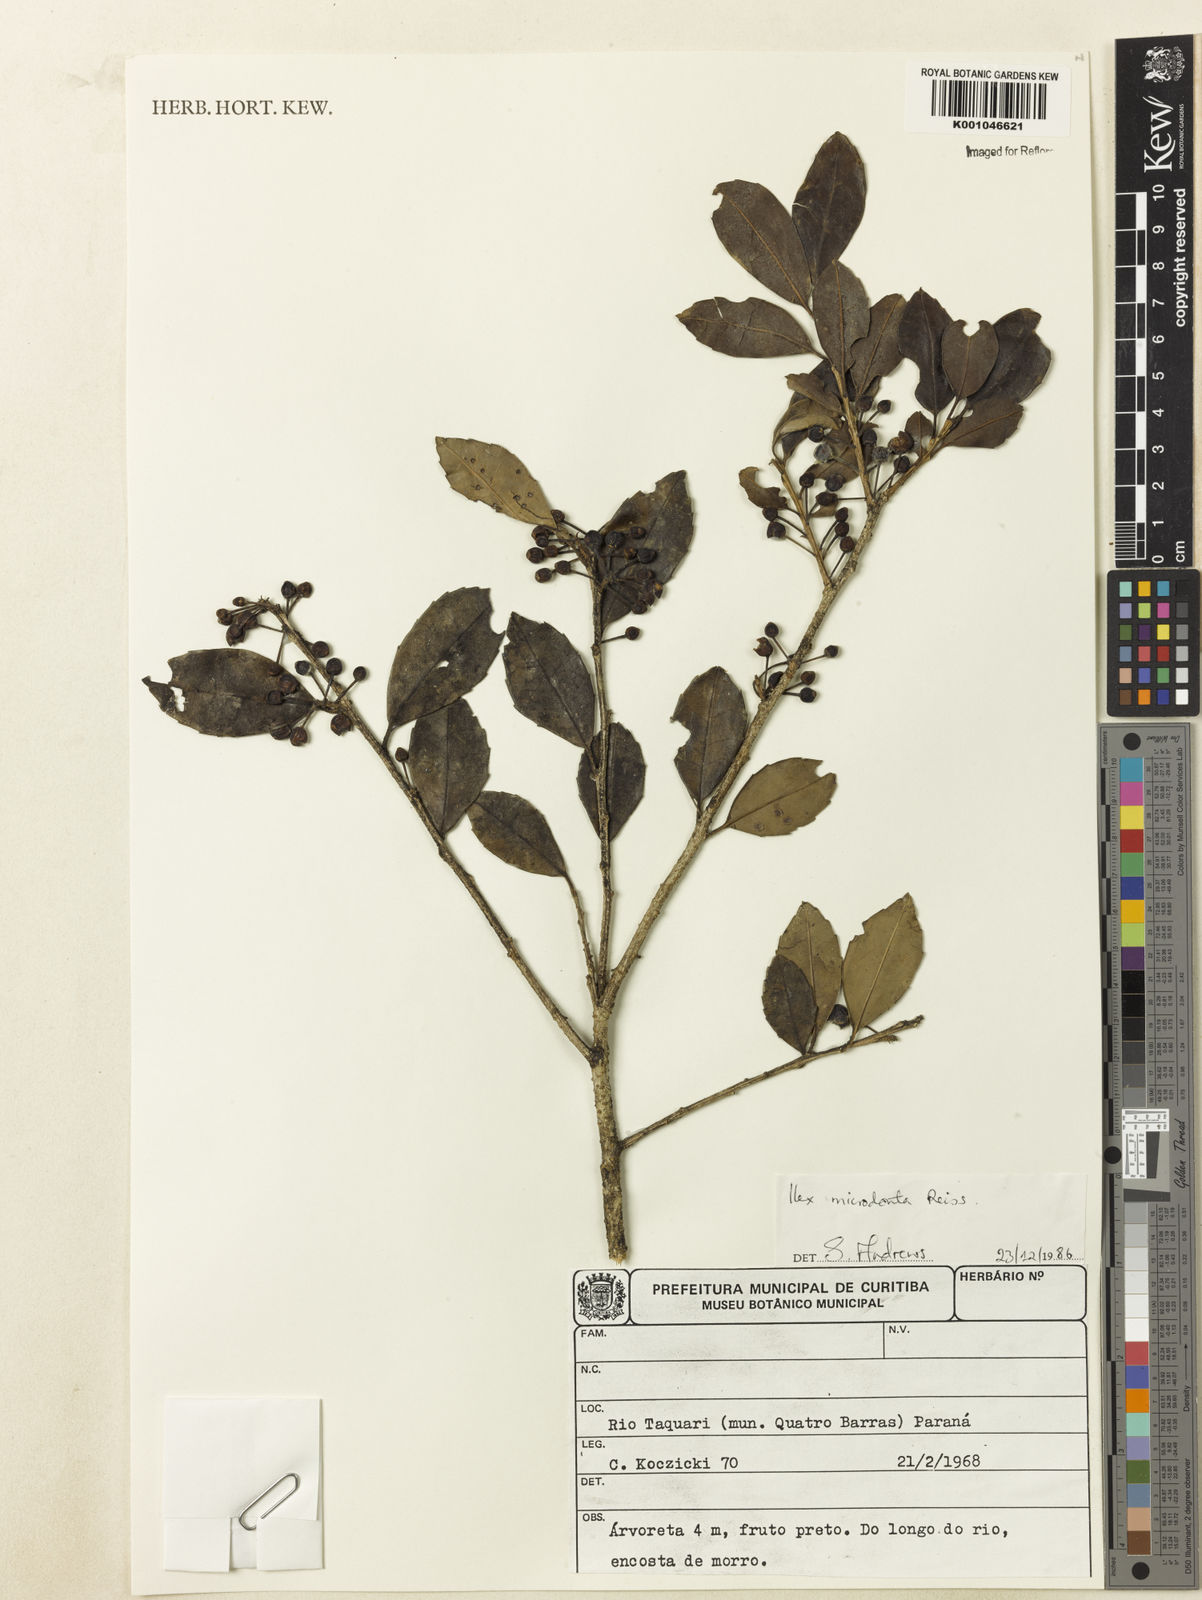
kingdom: Plantae
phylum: Tracheophyta
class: Magnoliopsida
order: Aquifoliales
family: Aquifoliaceae
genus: Ilex
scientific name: Ilex microdonta
